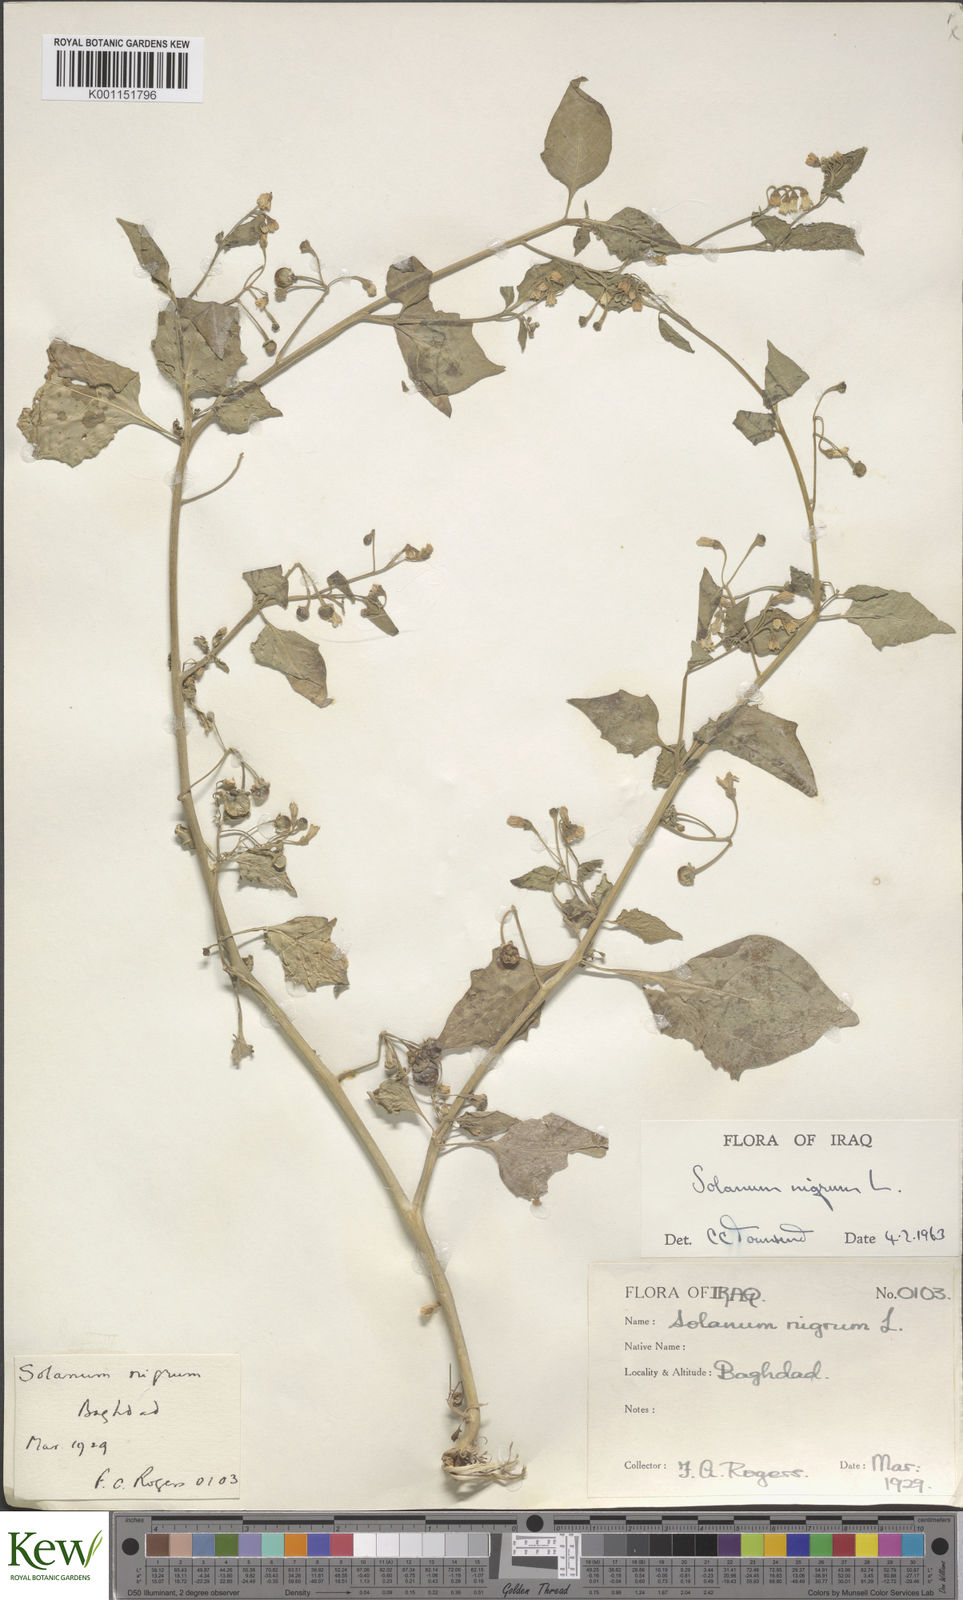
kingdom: Plantae
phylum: Tracheophyta
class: Magnoliopsida
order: Solanales
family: Solanaceae
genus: Solanum
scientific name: Solanum nigrum
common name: Black nightshade
